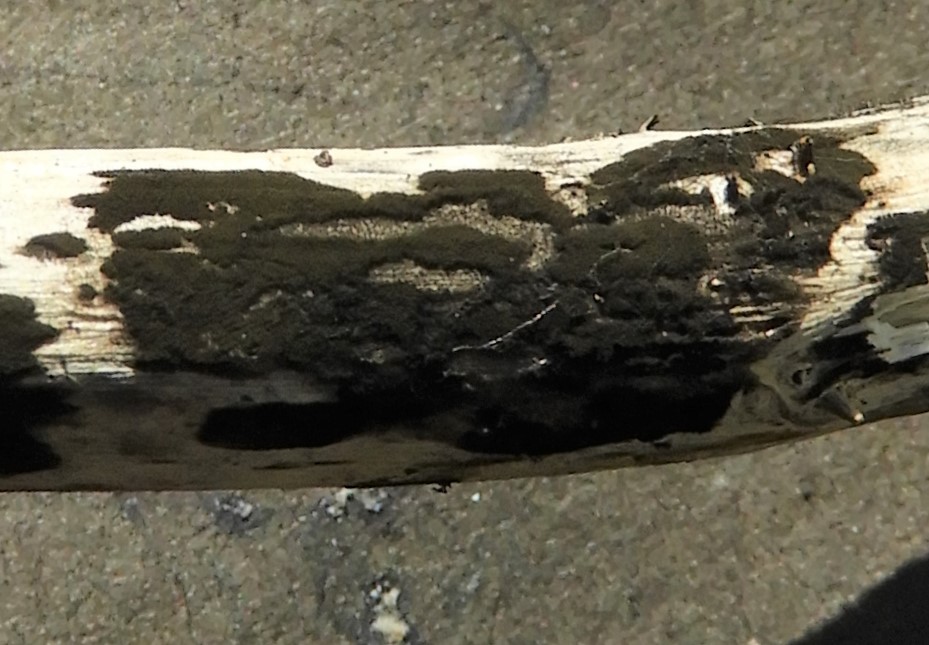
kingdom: Fungi
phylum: Ascomycota
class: Dothideomycetes
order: Pleosporales
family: Torulaceae
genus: Torula
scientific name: Torula herbarum
